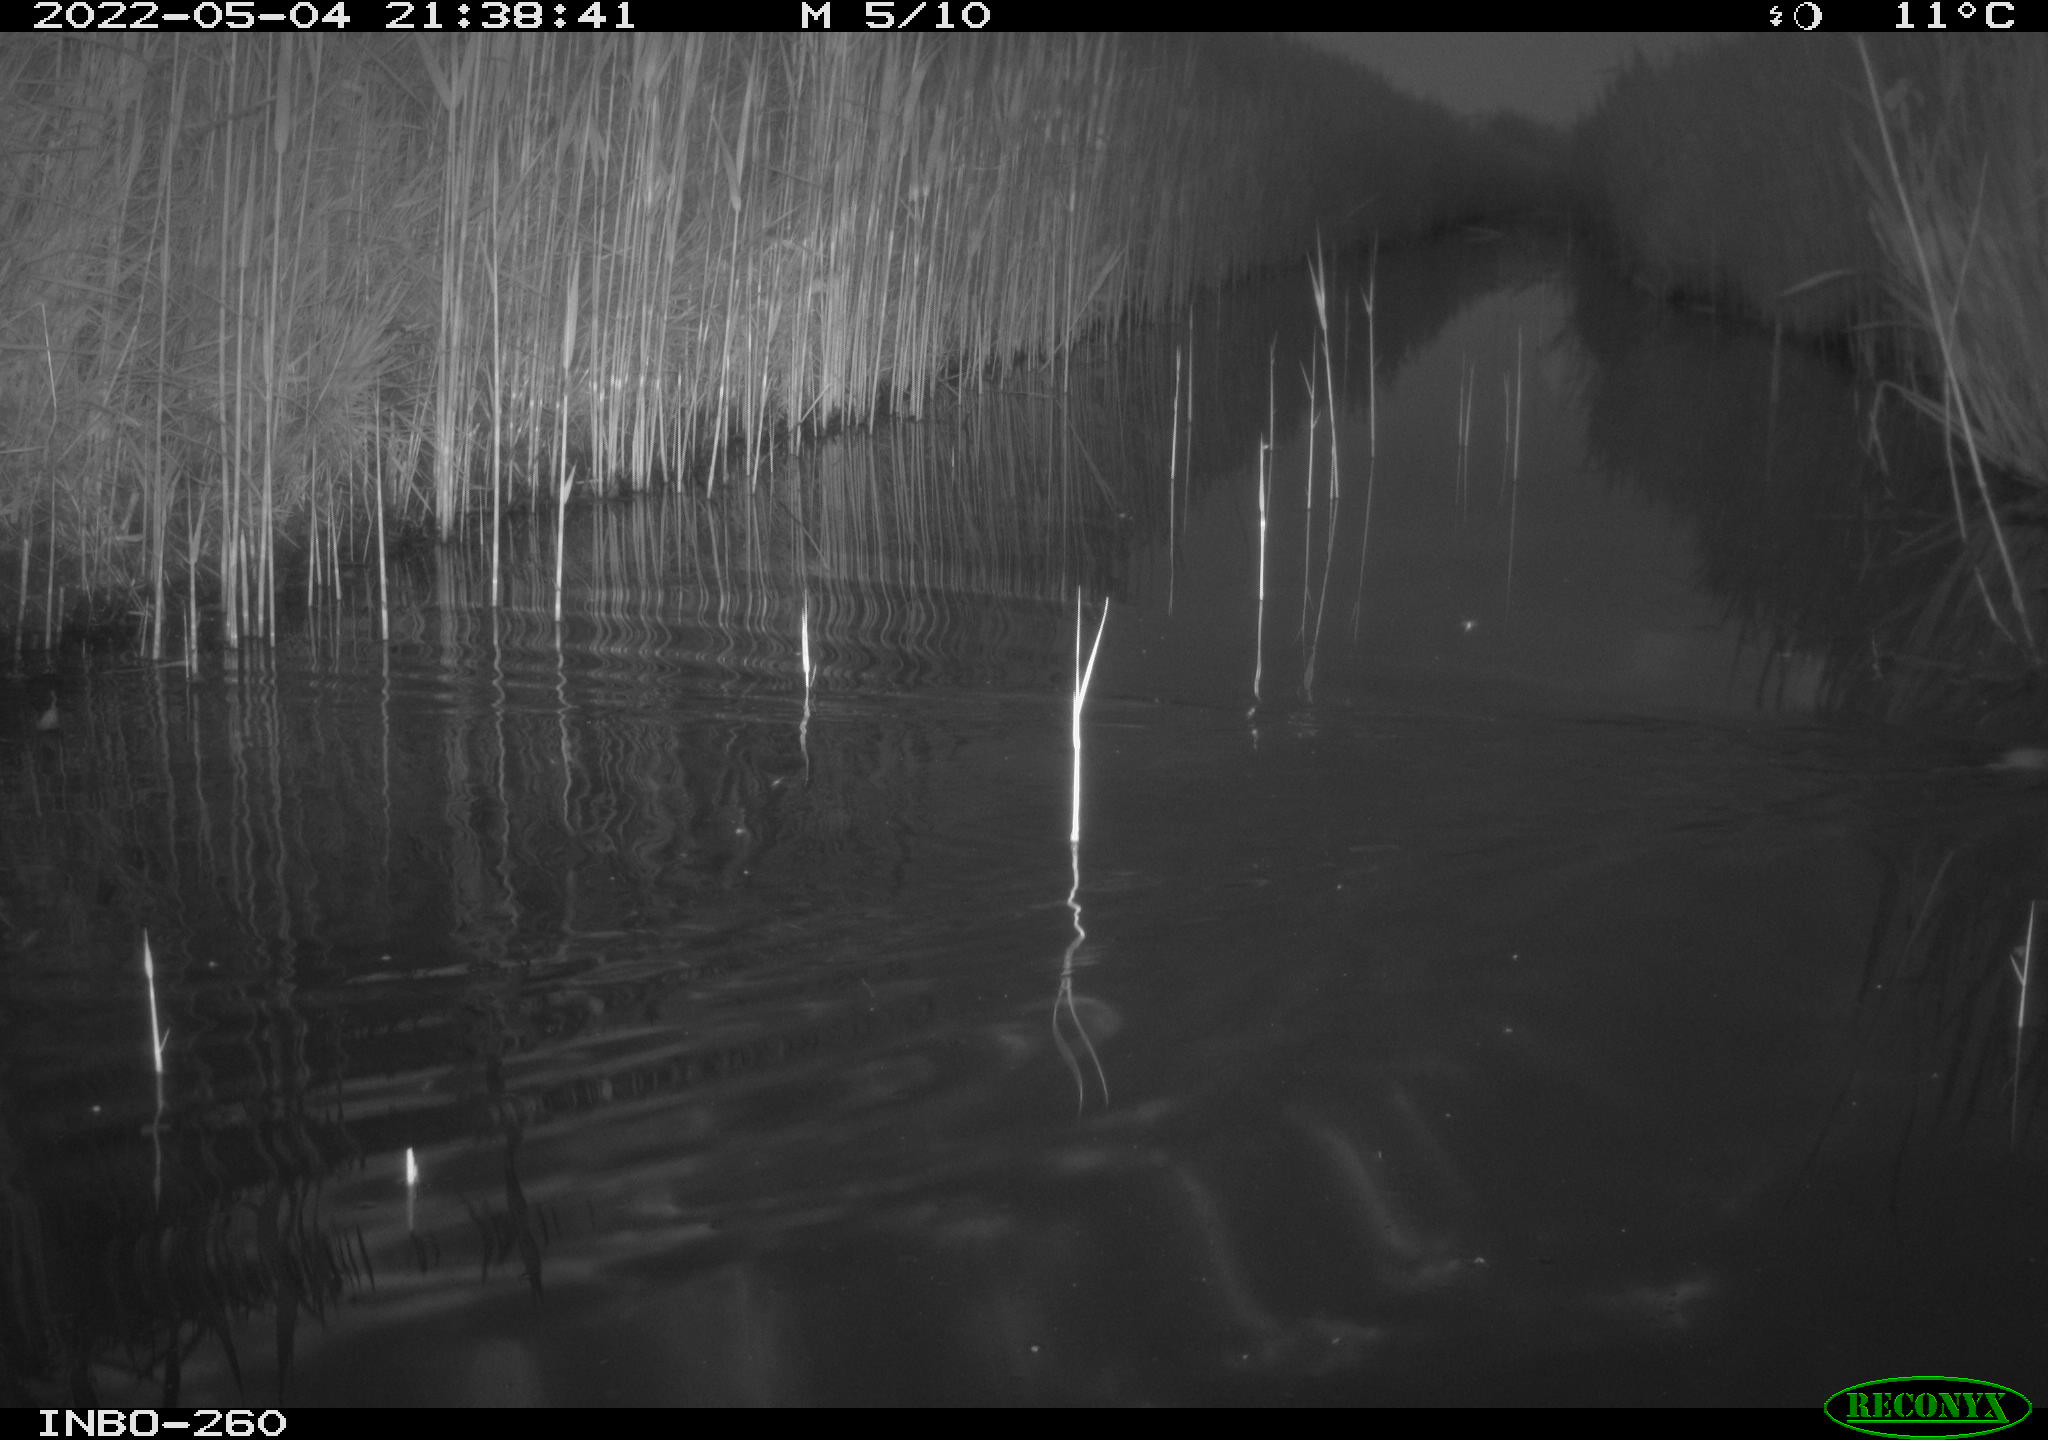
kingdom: Animalia
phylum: Chordata
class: Mammalia
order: Rodentia
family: Muridae
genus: Rattus
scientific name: Rattus norvegicus
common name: Brown rat
